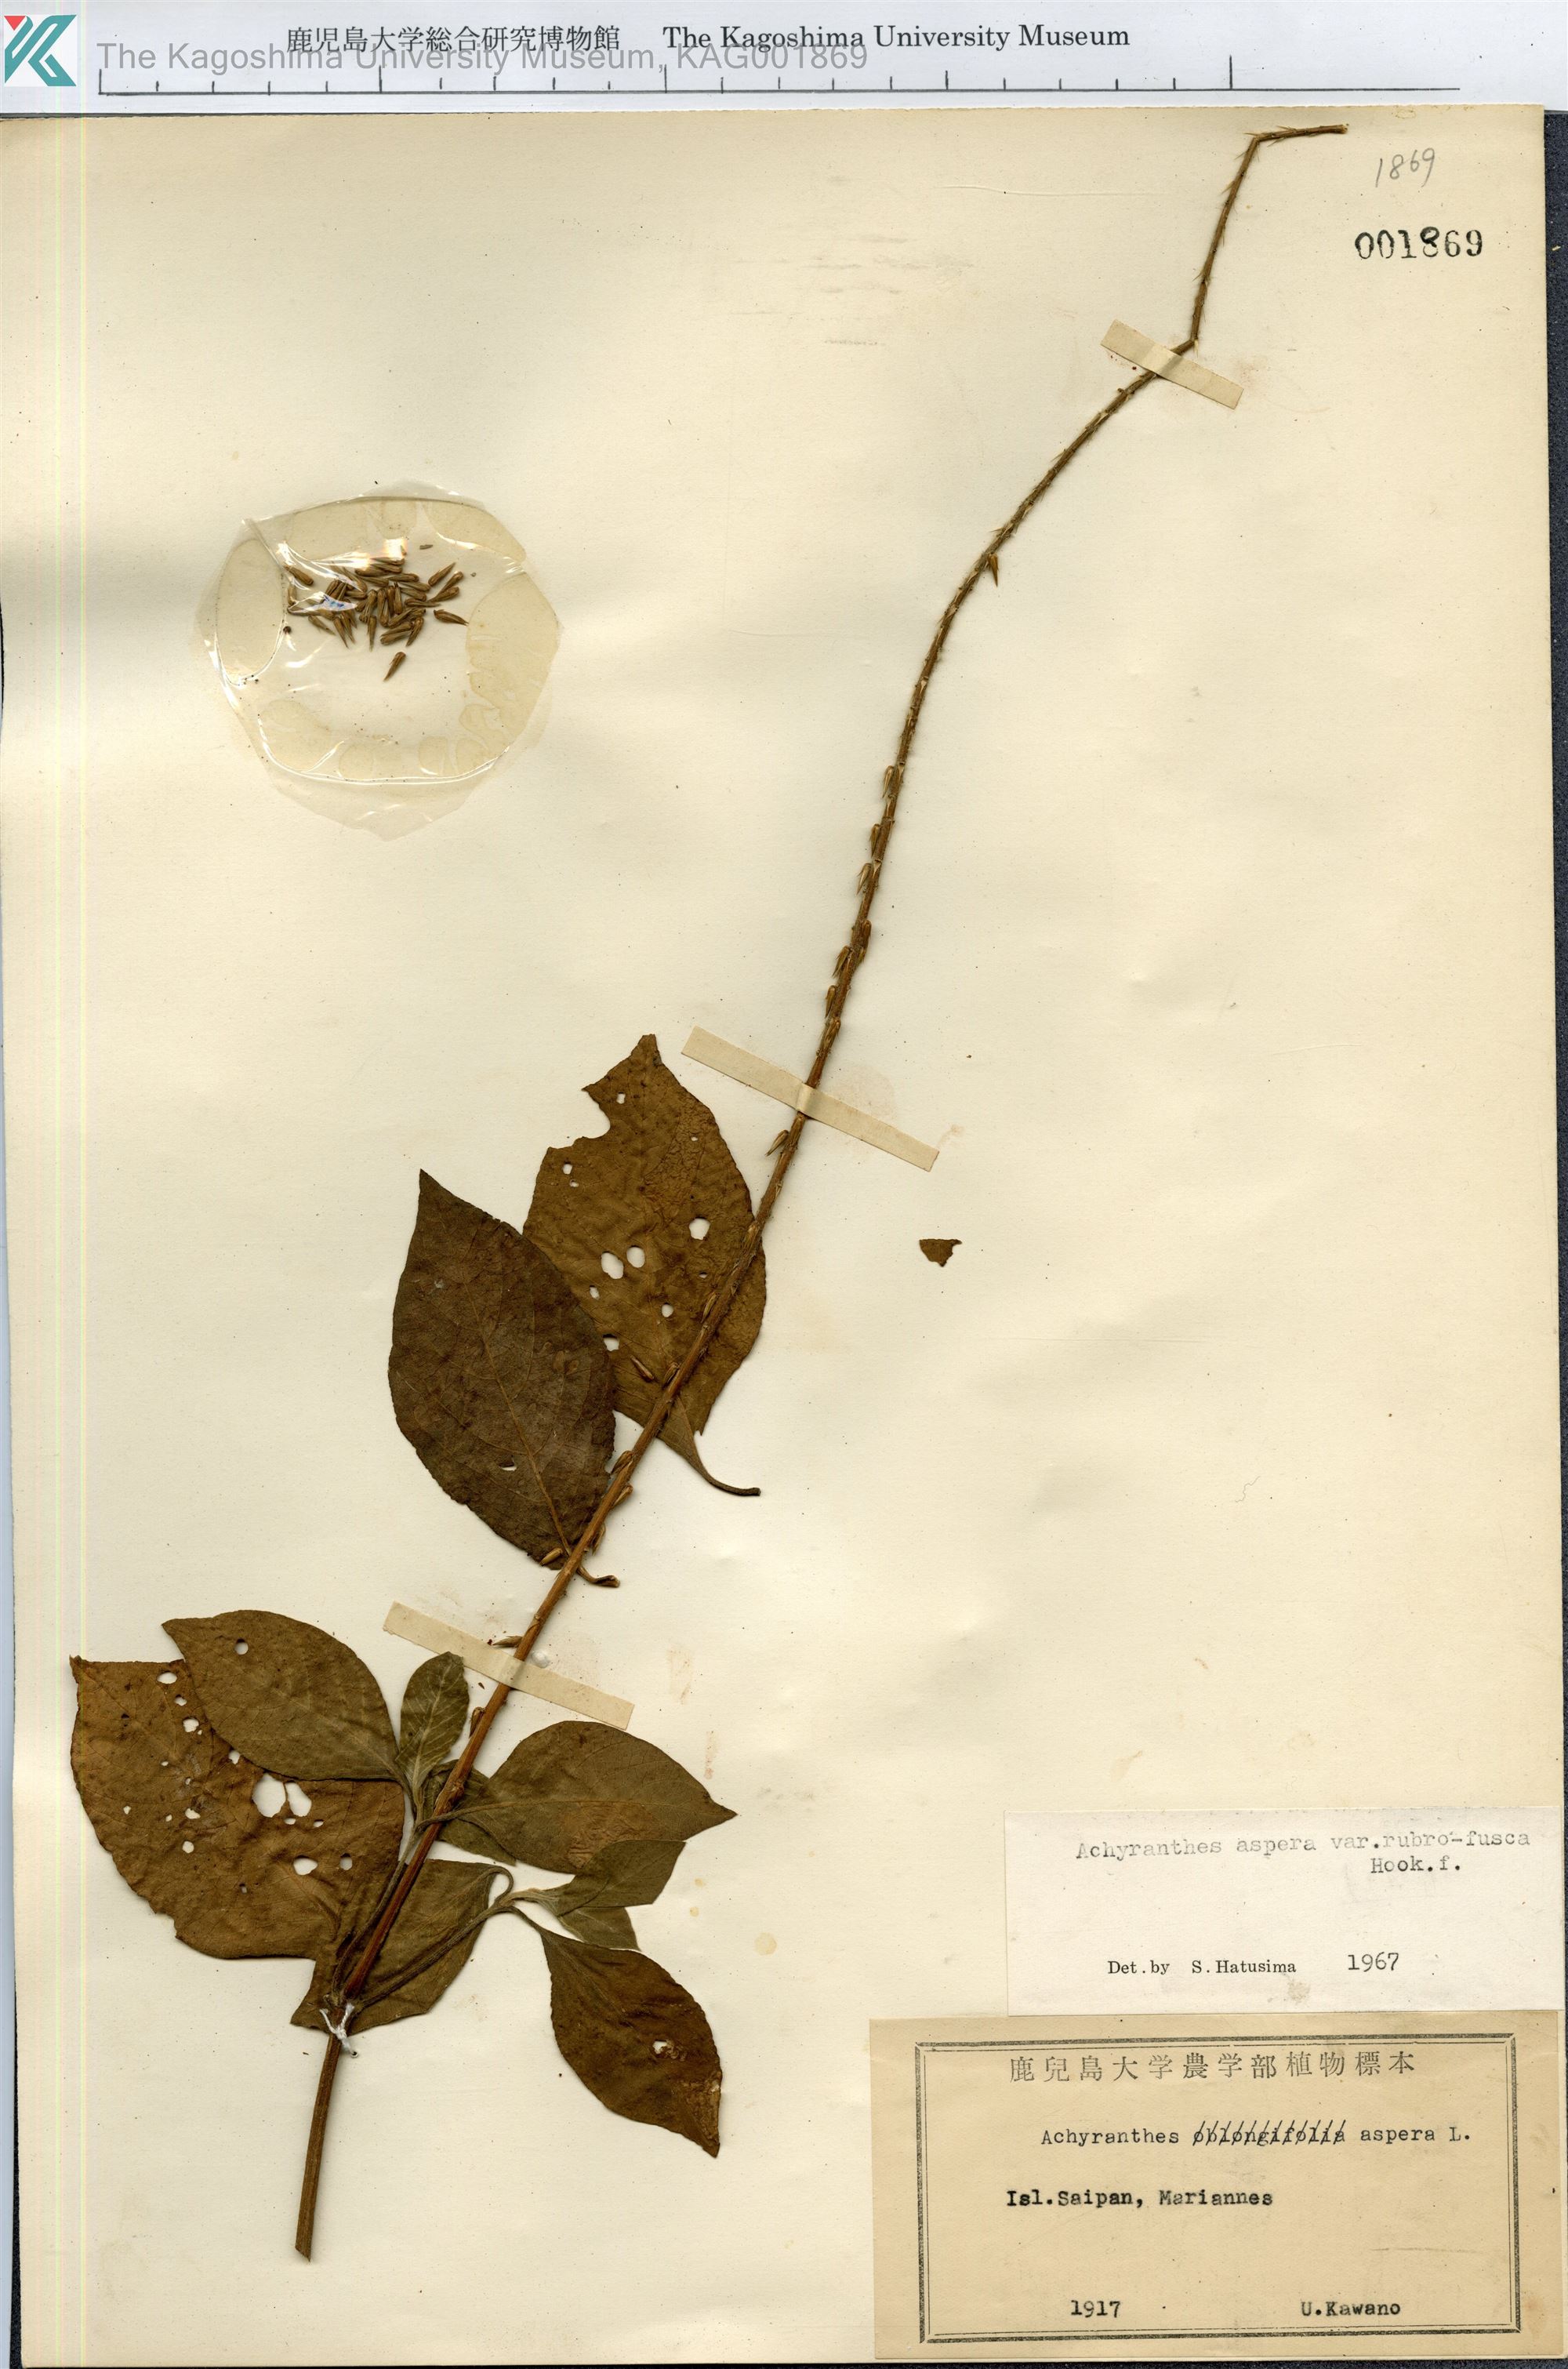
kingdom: Plantae
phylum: Tracheophyta
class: Magnoliopsida
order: Caryophyllales
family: Amaranthaceae
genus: Achyranthes
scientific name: Achyranthes aspera
